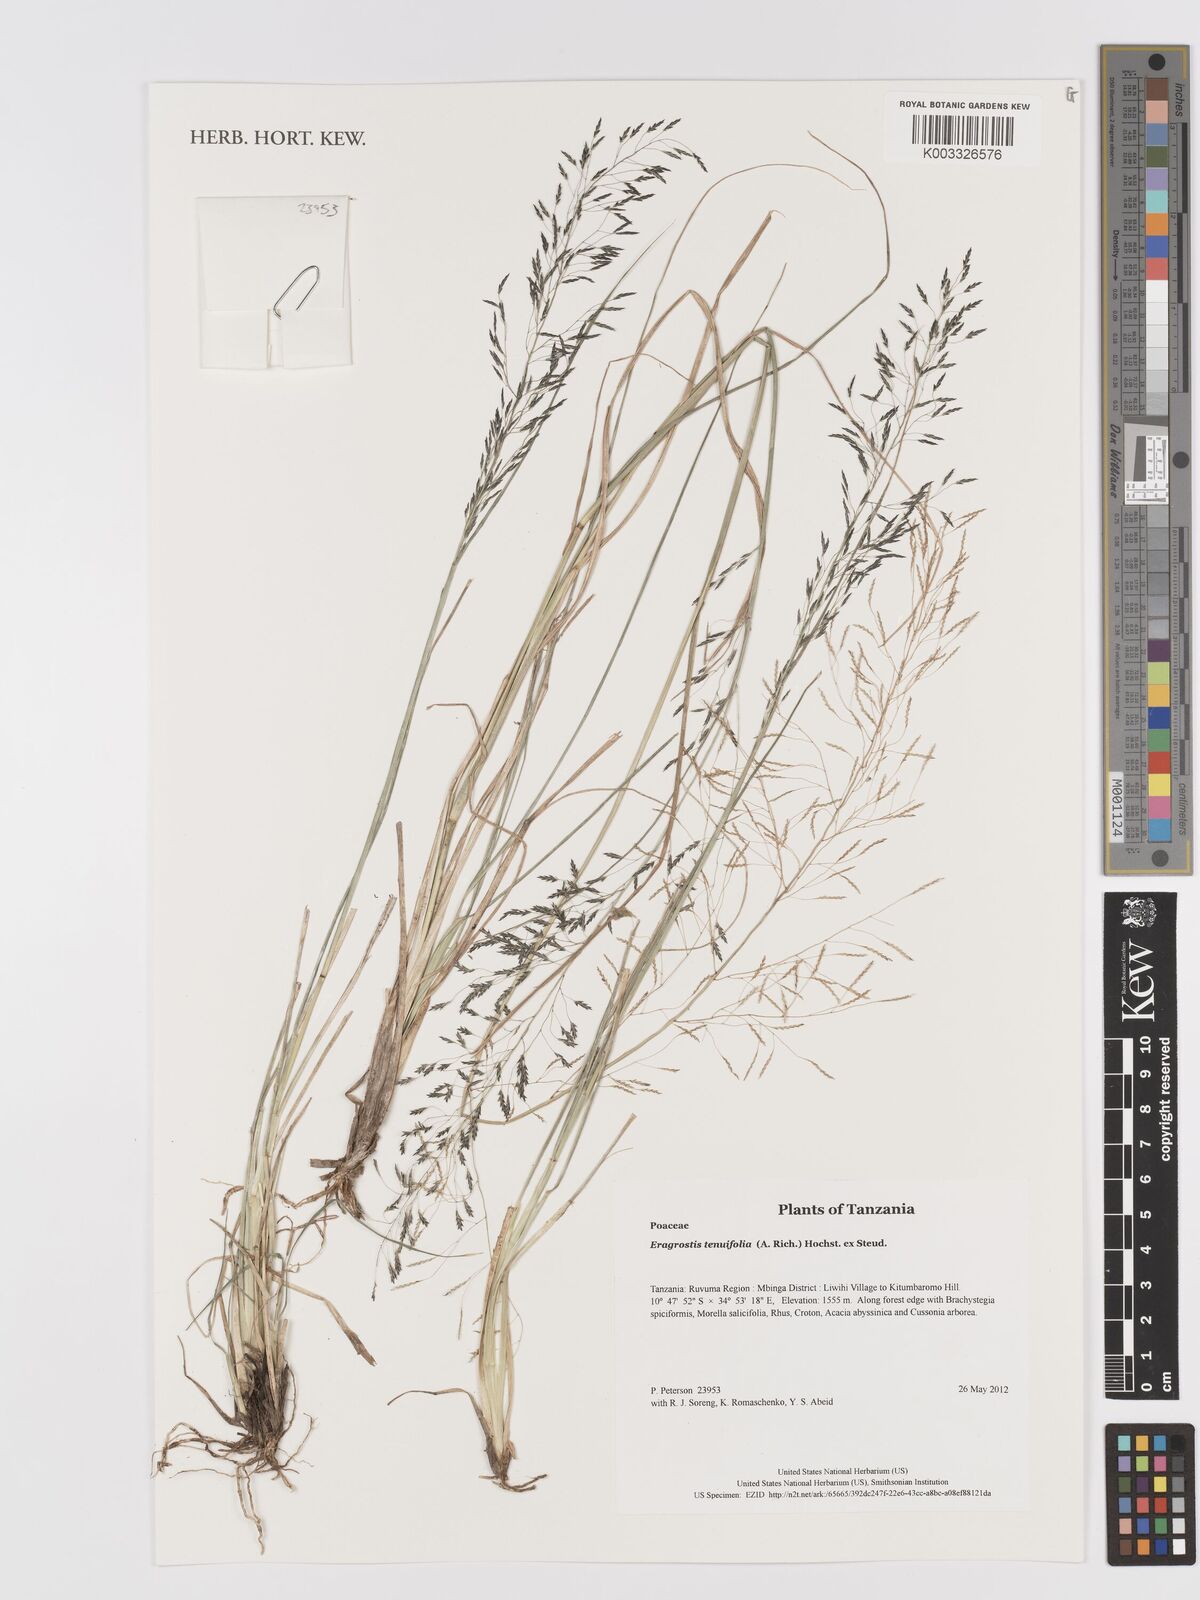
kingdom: Plantae
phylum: Tracheophyta
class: Liliopsida
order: Poales
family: Poaceae
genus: Eragrostis
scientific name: Eragrostis tenuifolia
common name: Elastic grass
